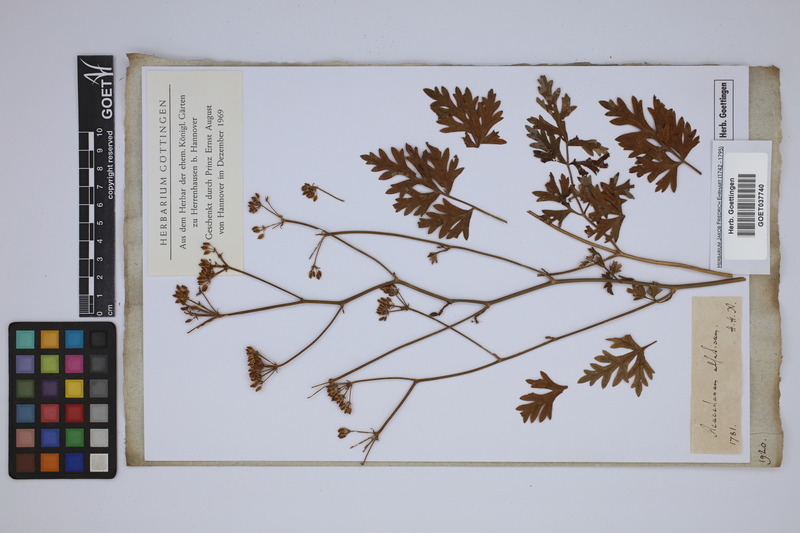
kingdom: Plantae
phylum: Tracheophyta
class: Magnoliopsida
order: Apiales
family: Apiaceae
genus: Xanthoselinum
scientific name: Xanthoselinum alsaticum
